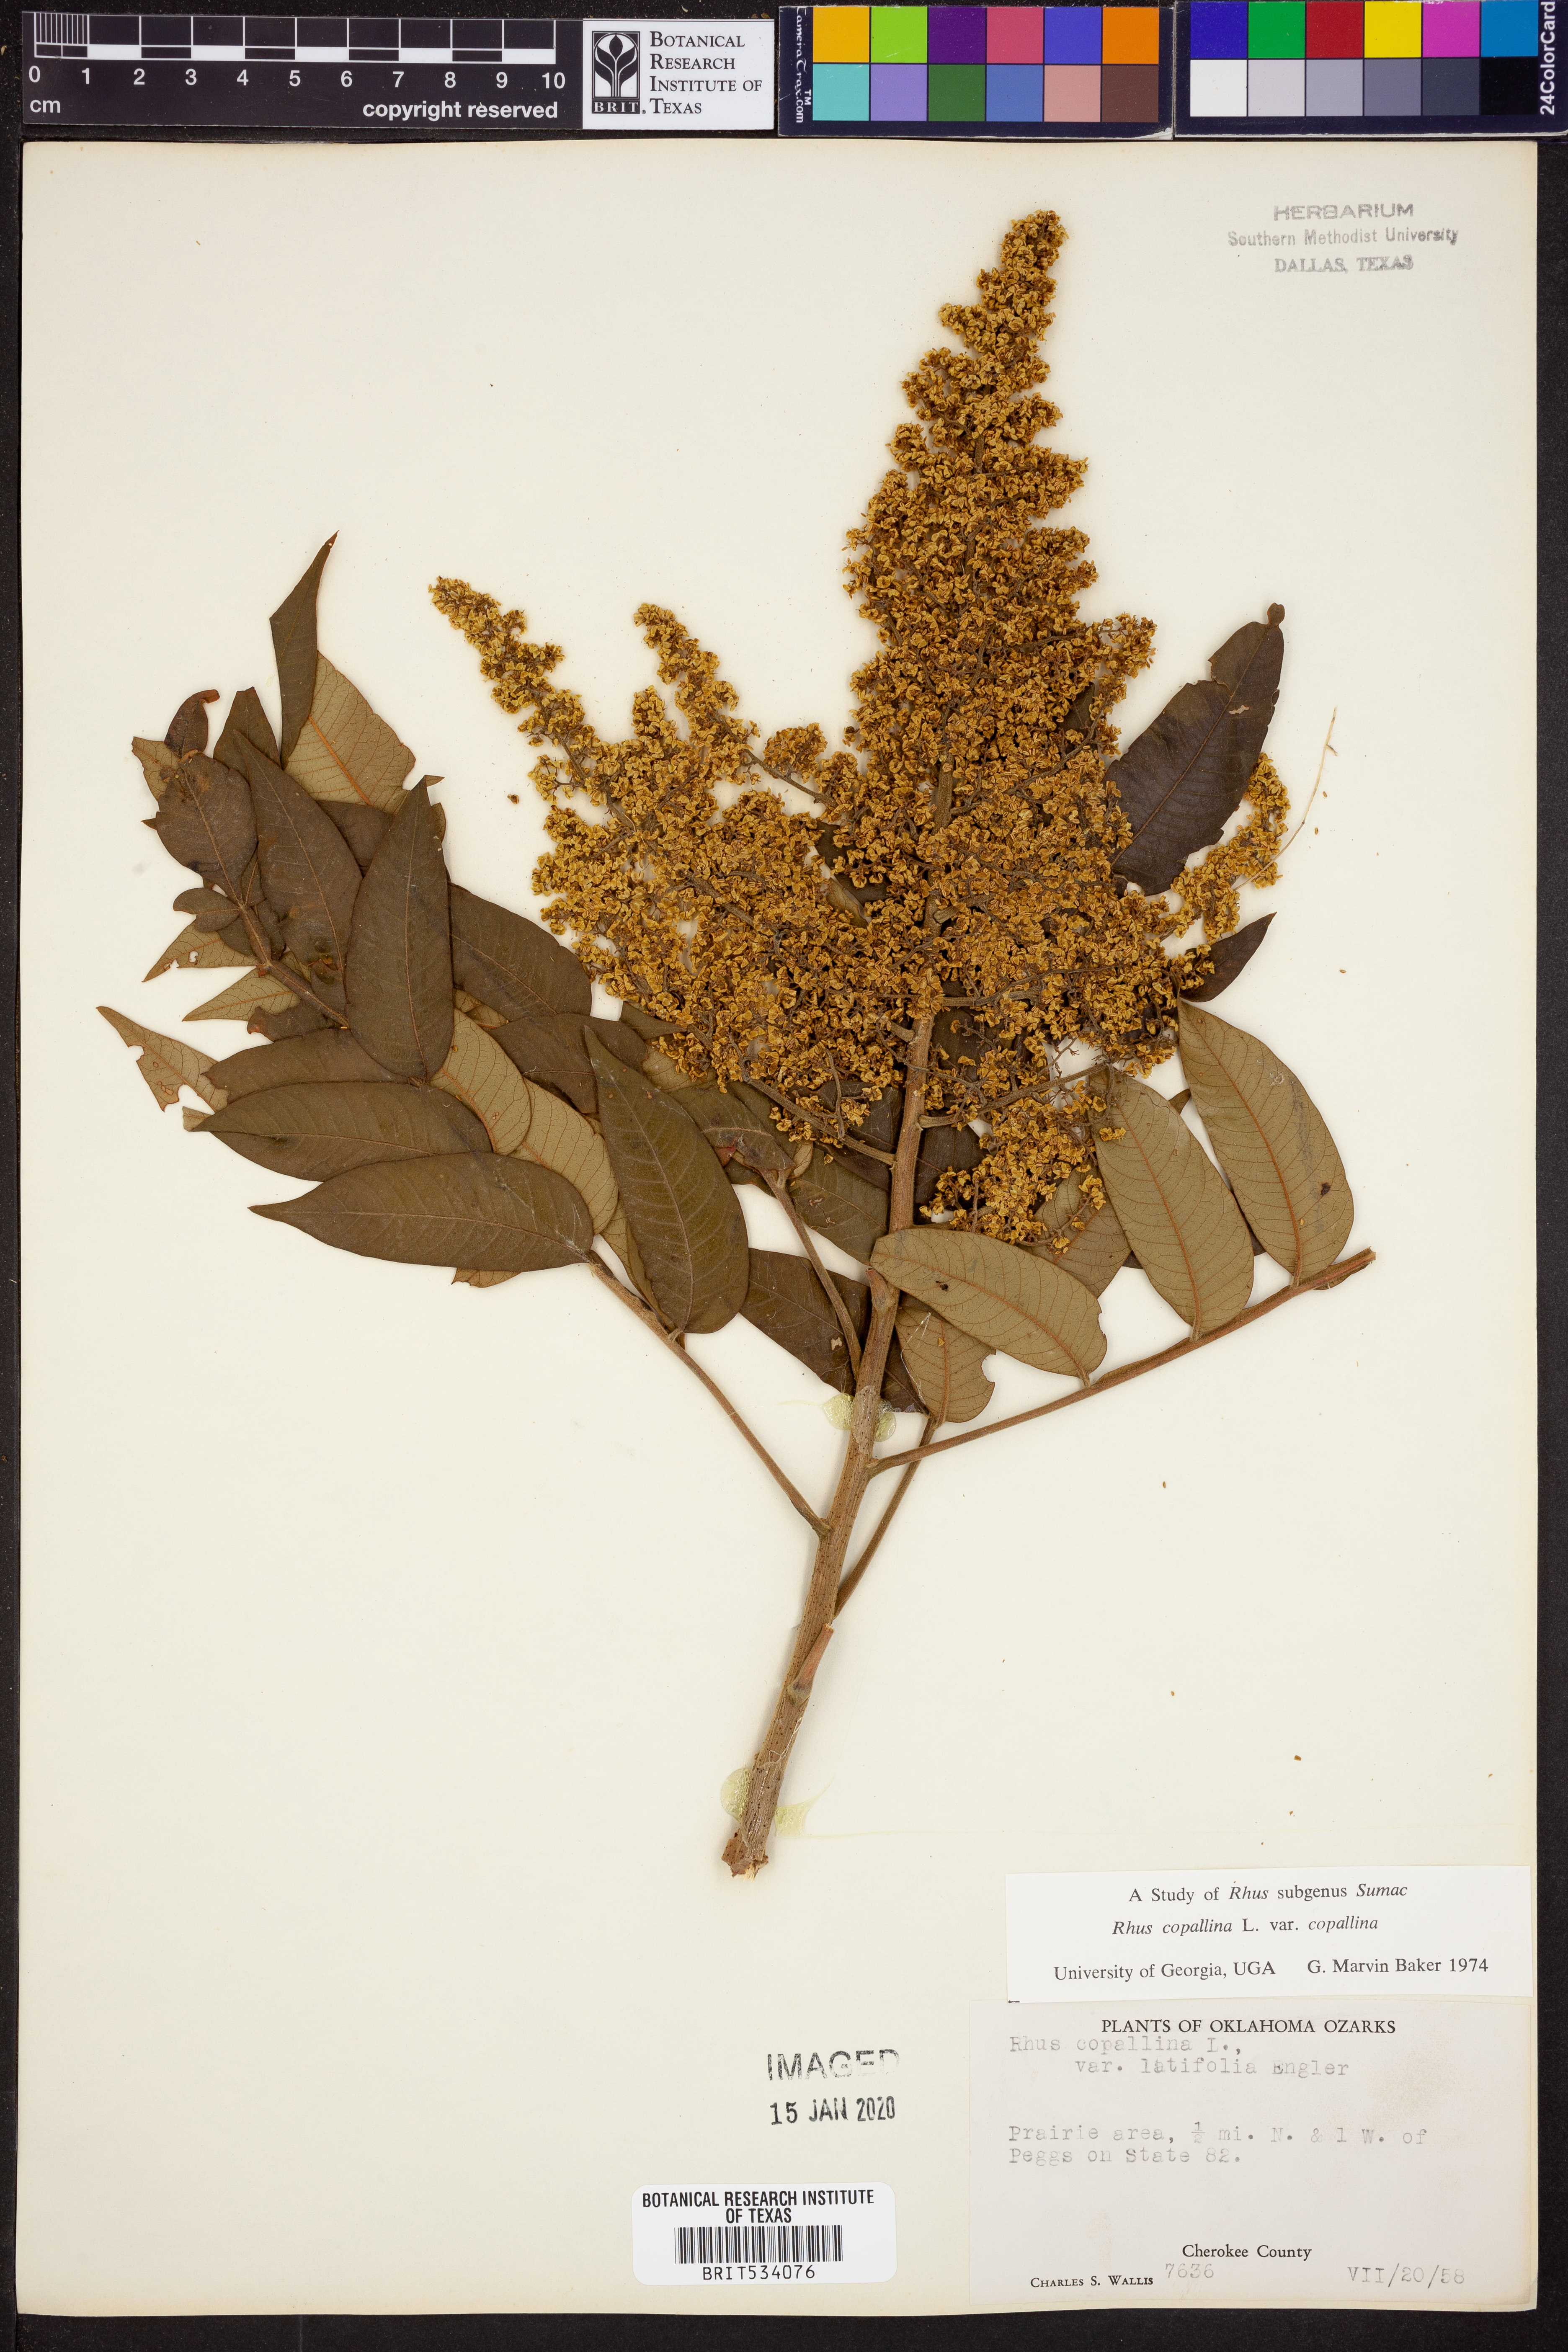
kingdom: Plantae
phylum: Tracheophyta
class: Magnoliopsida
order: Sapindales
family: Anacardiaceae
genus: Rhus
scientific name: Rhus copallina
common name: Shining sumac
